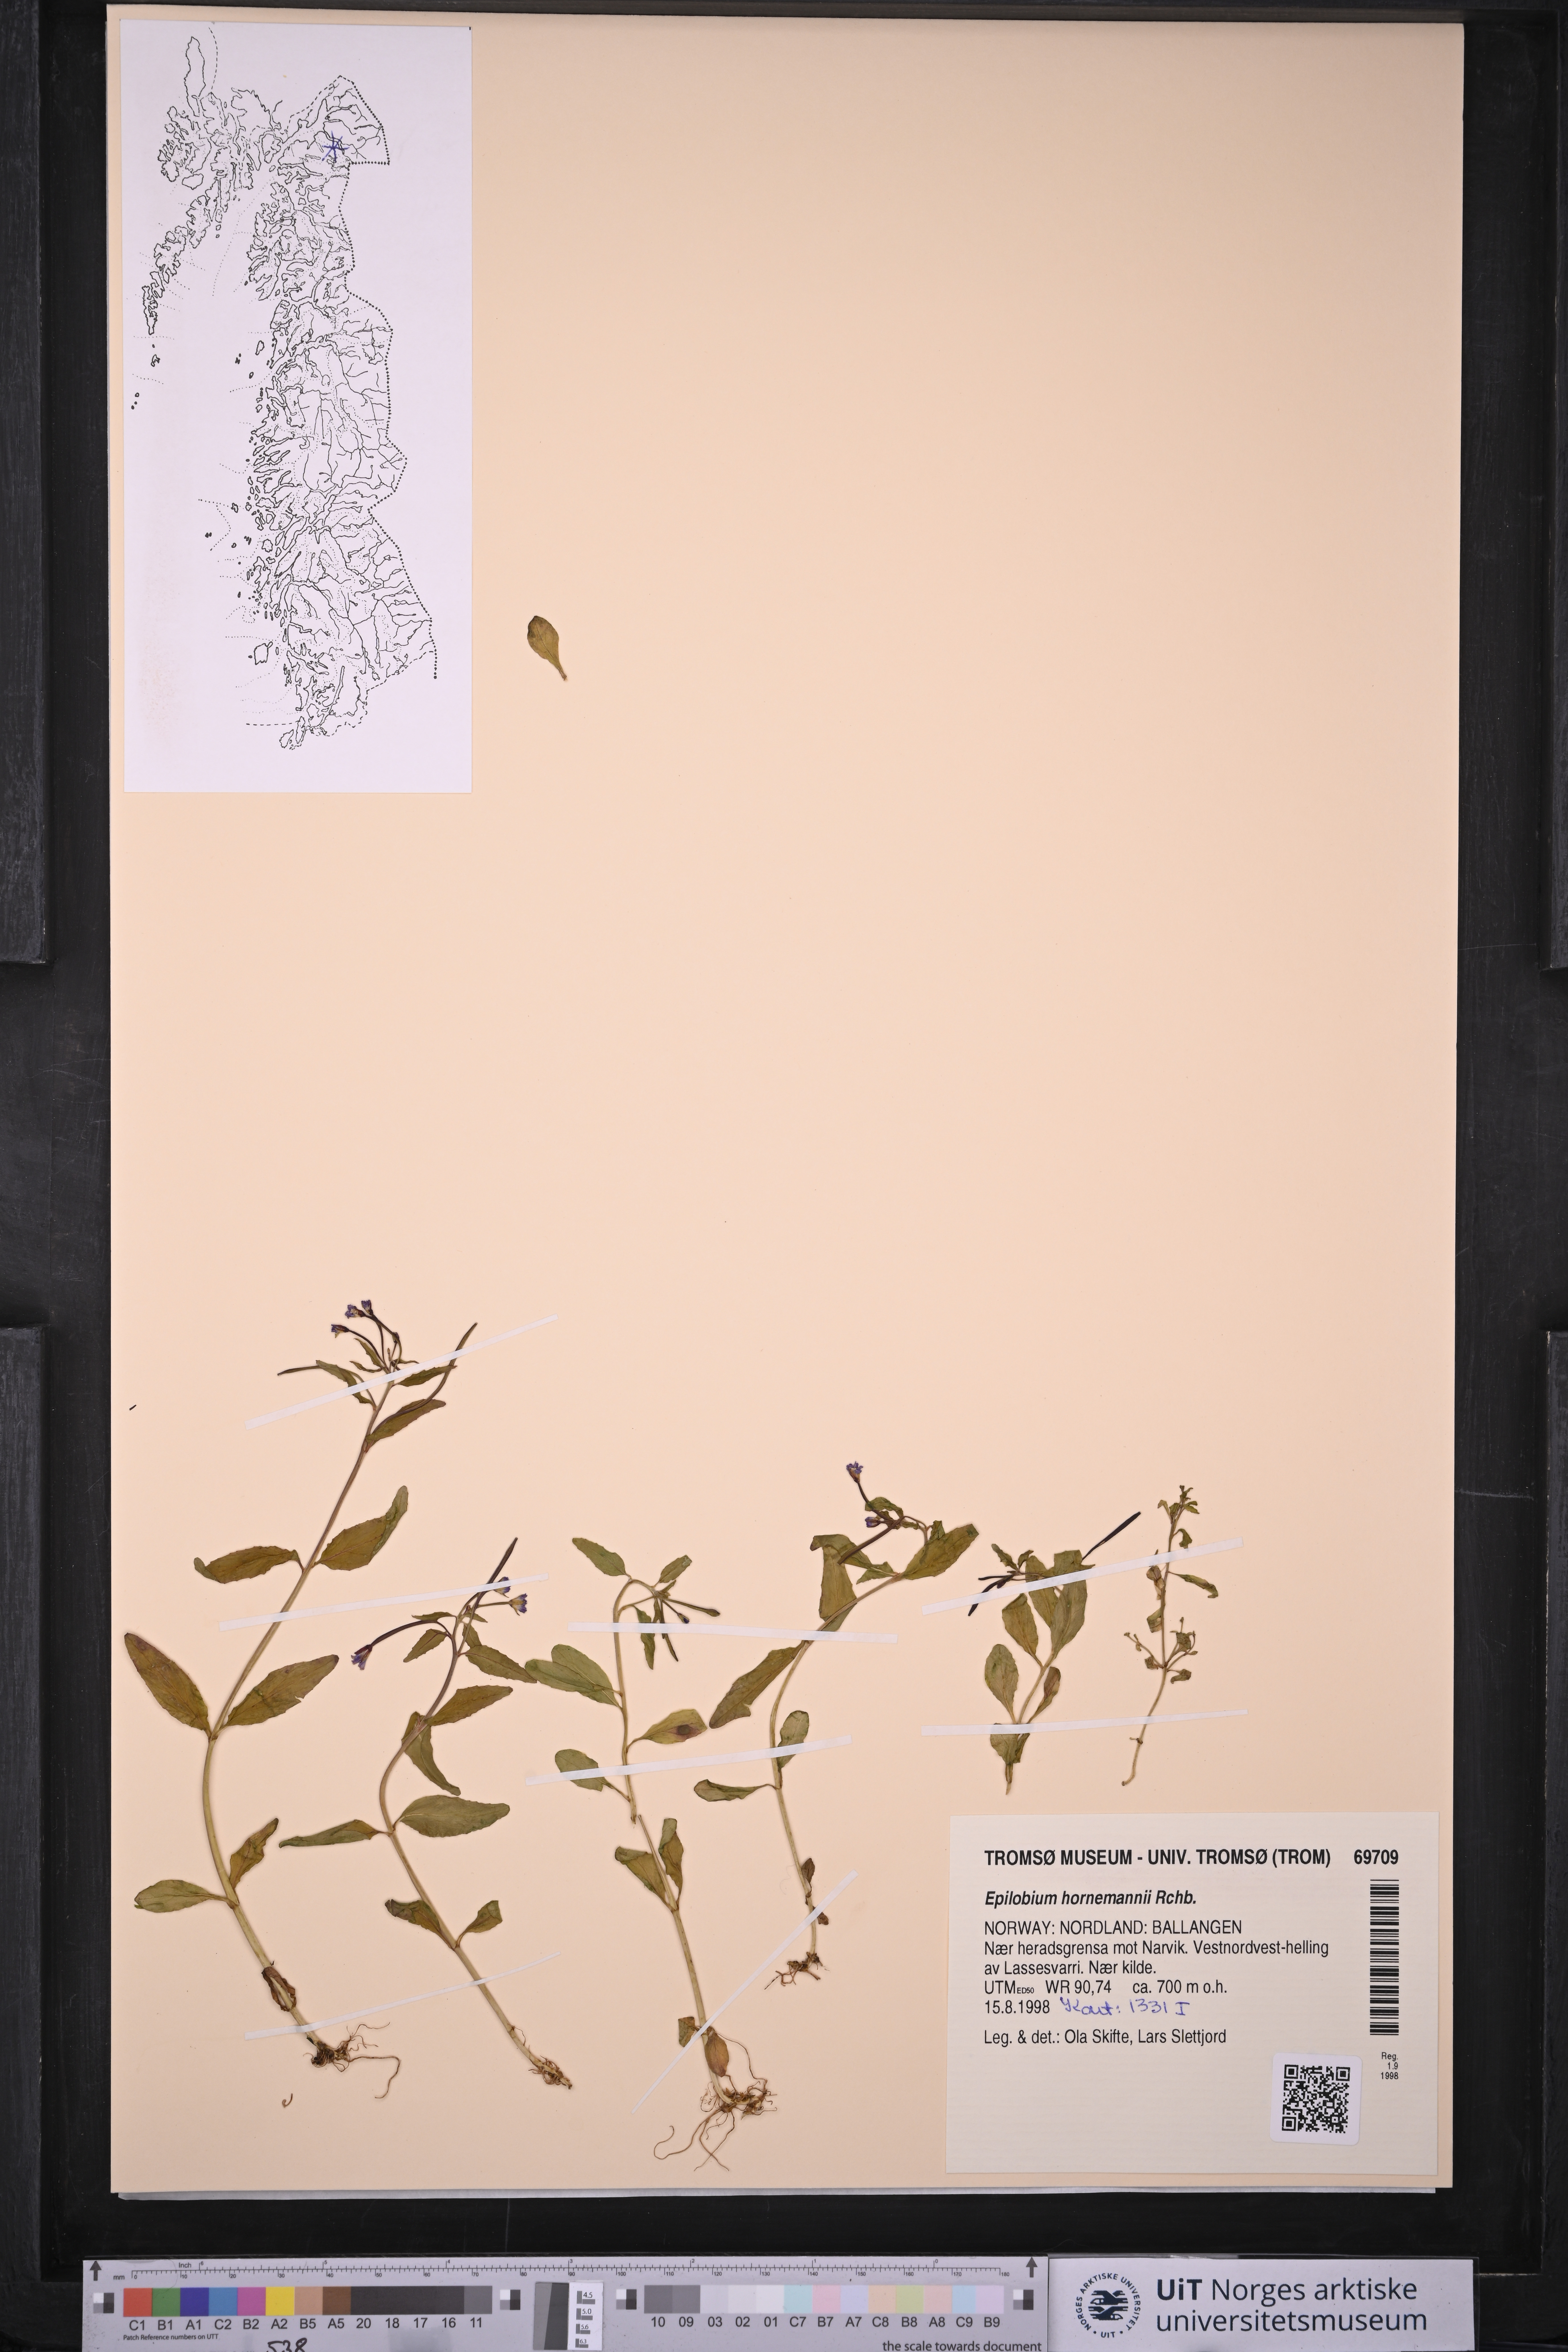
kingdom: Plantae
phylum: Tracheophyta
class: Magnoliopsida
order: Myrtales
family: Onagraceae
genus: Epilobium
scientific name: Epilobium hornemannii
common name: Hornemann's willowherb
